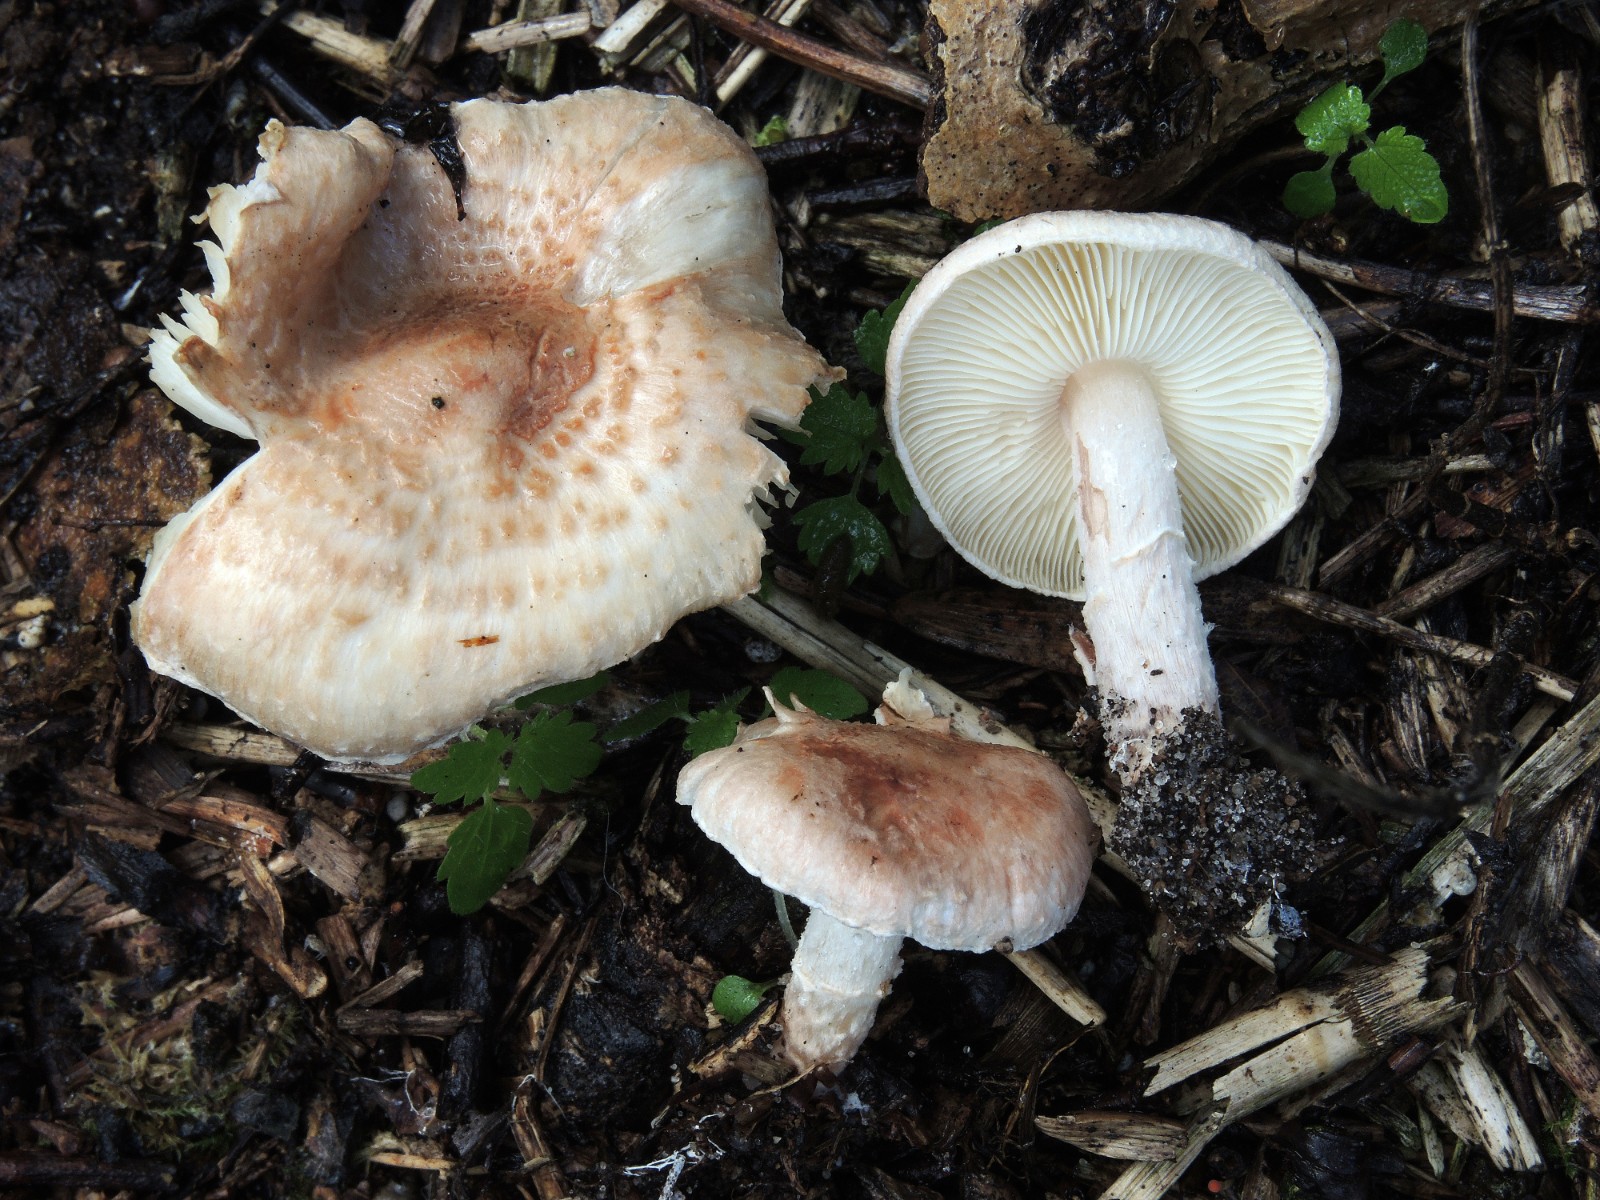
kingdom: Fungi
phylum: Basidiomycota
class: Agaricomycetes
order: Agaricales
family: Agaricaceae
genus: Lepiota
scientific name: Lepiota subincarnata
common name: kødfarvet parasolhat
